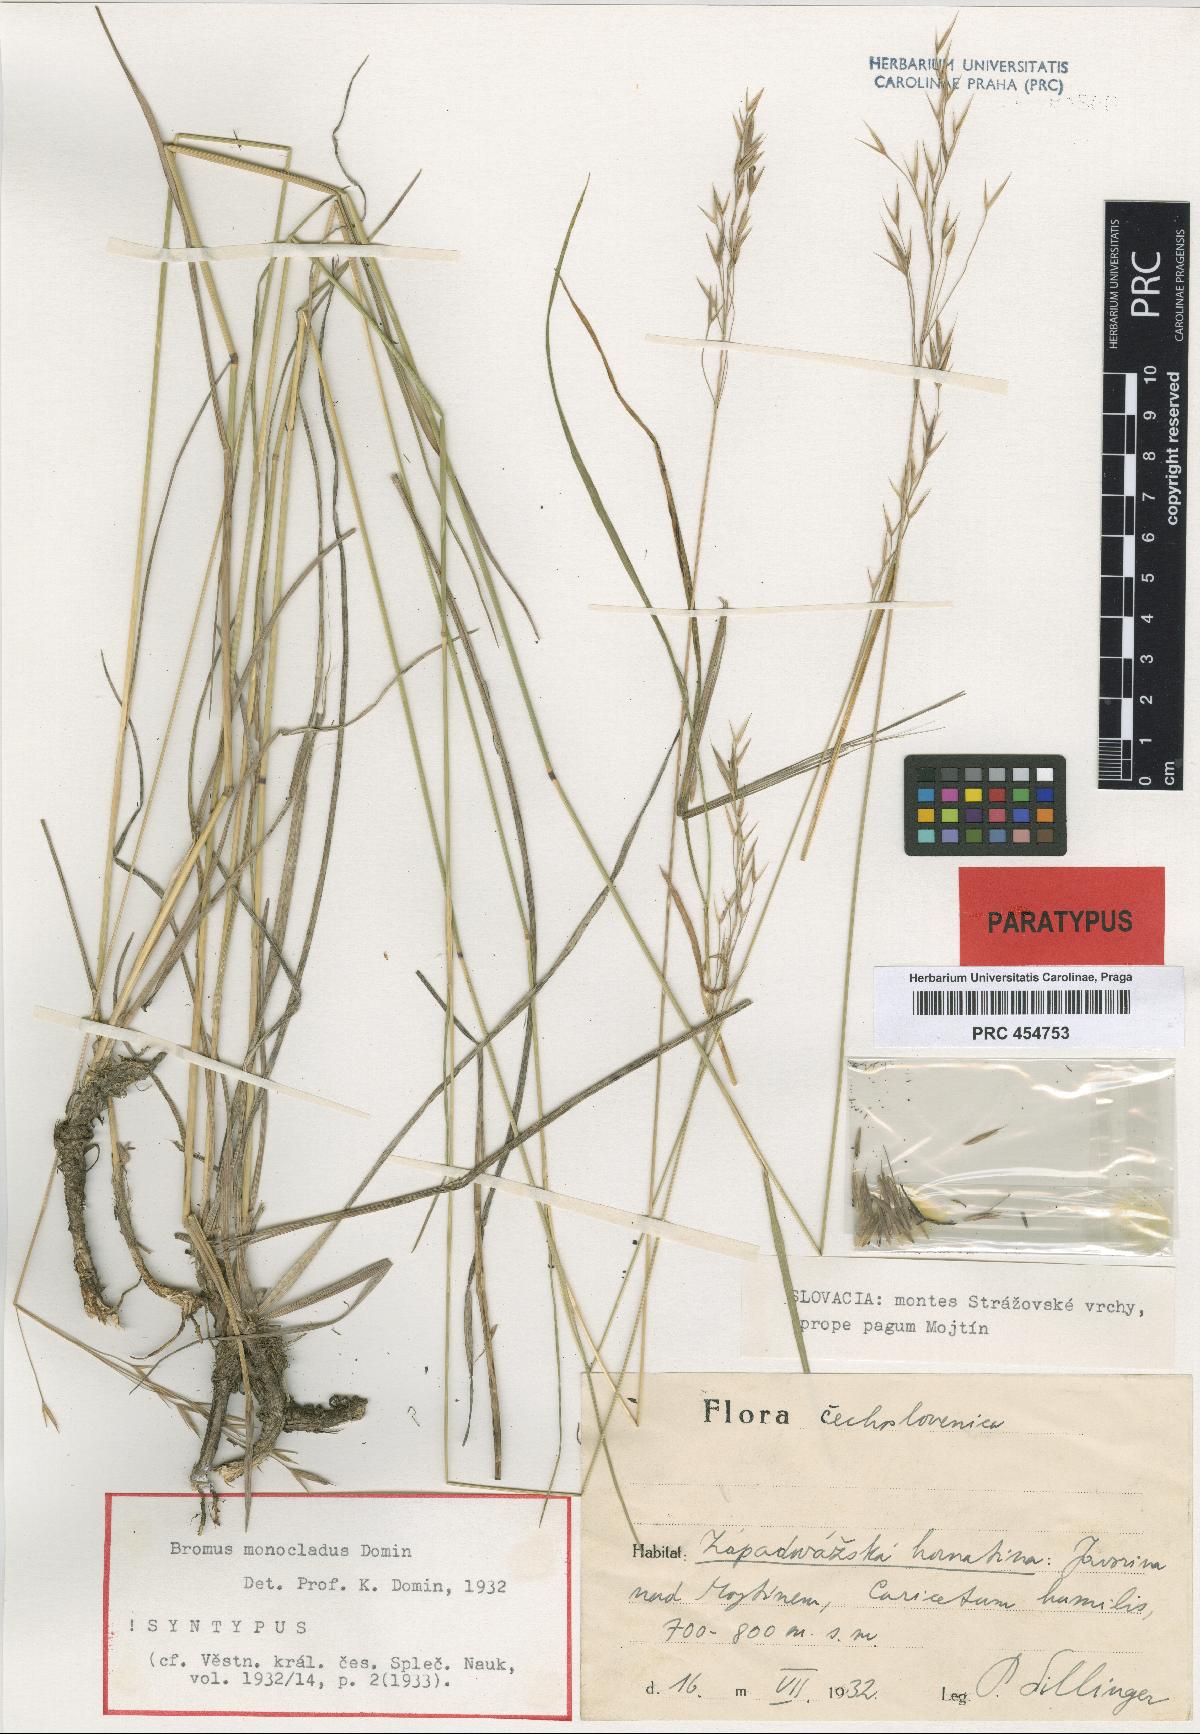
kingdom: Plantae
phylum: Tracheophyta
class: Liliopsida
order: Poales
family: Poaceae
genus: Bromus
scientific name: Bromus pannonicus
